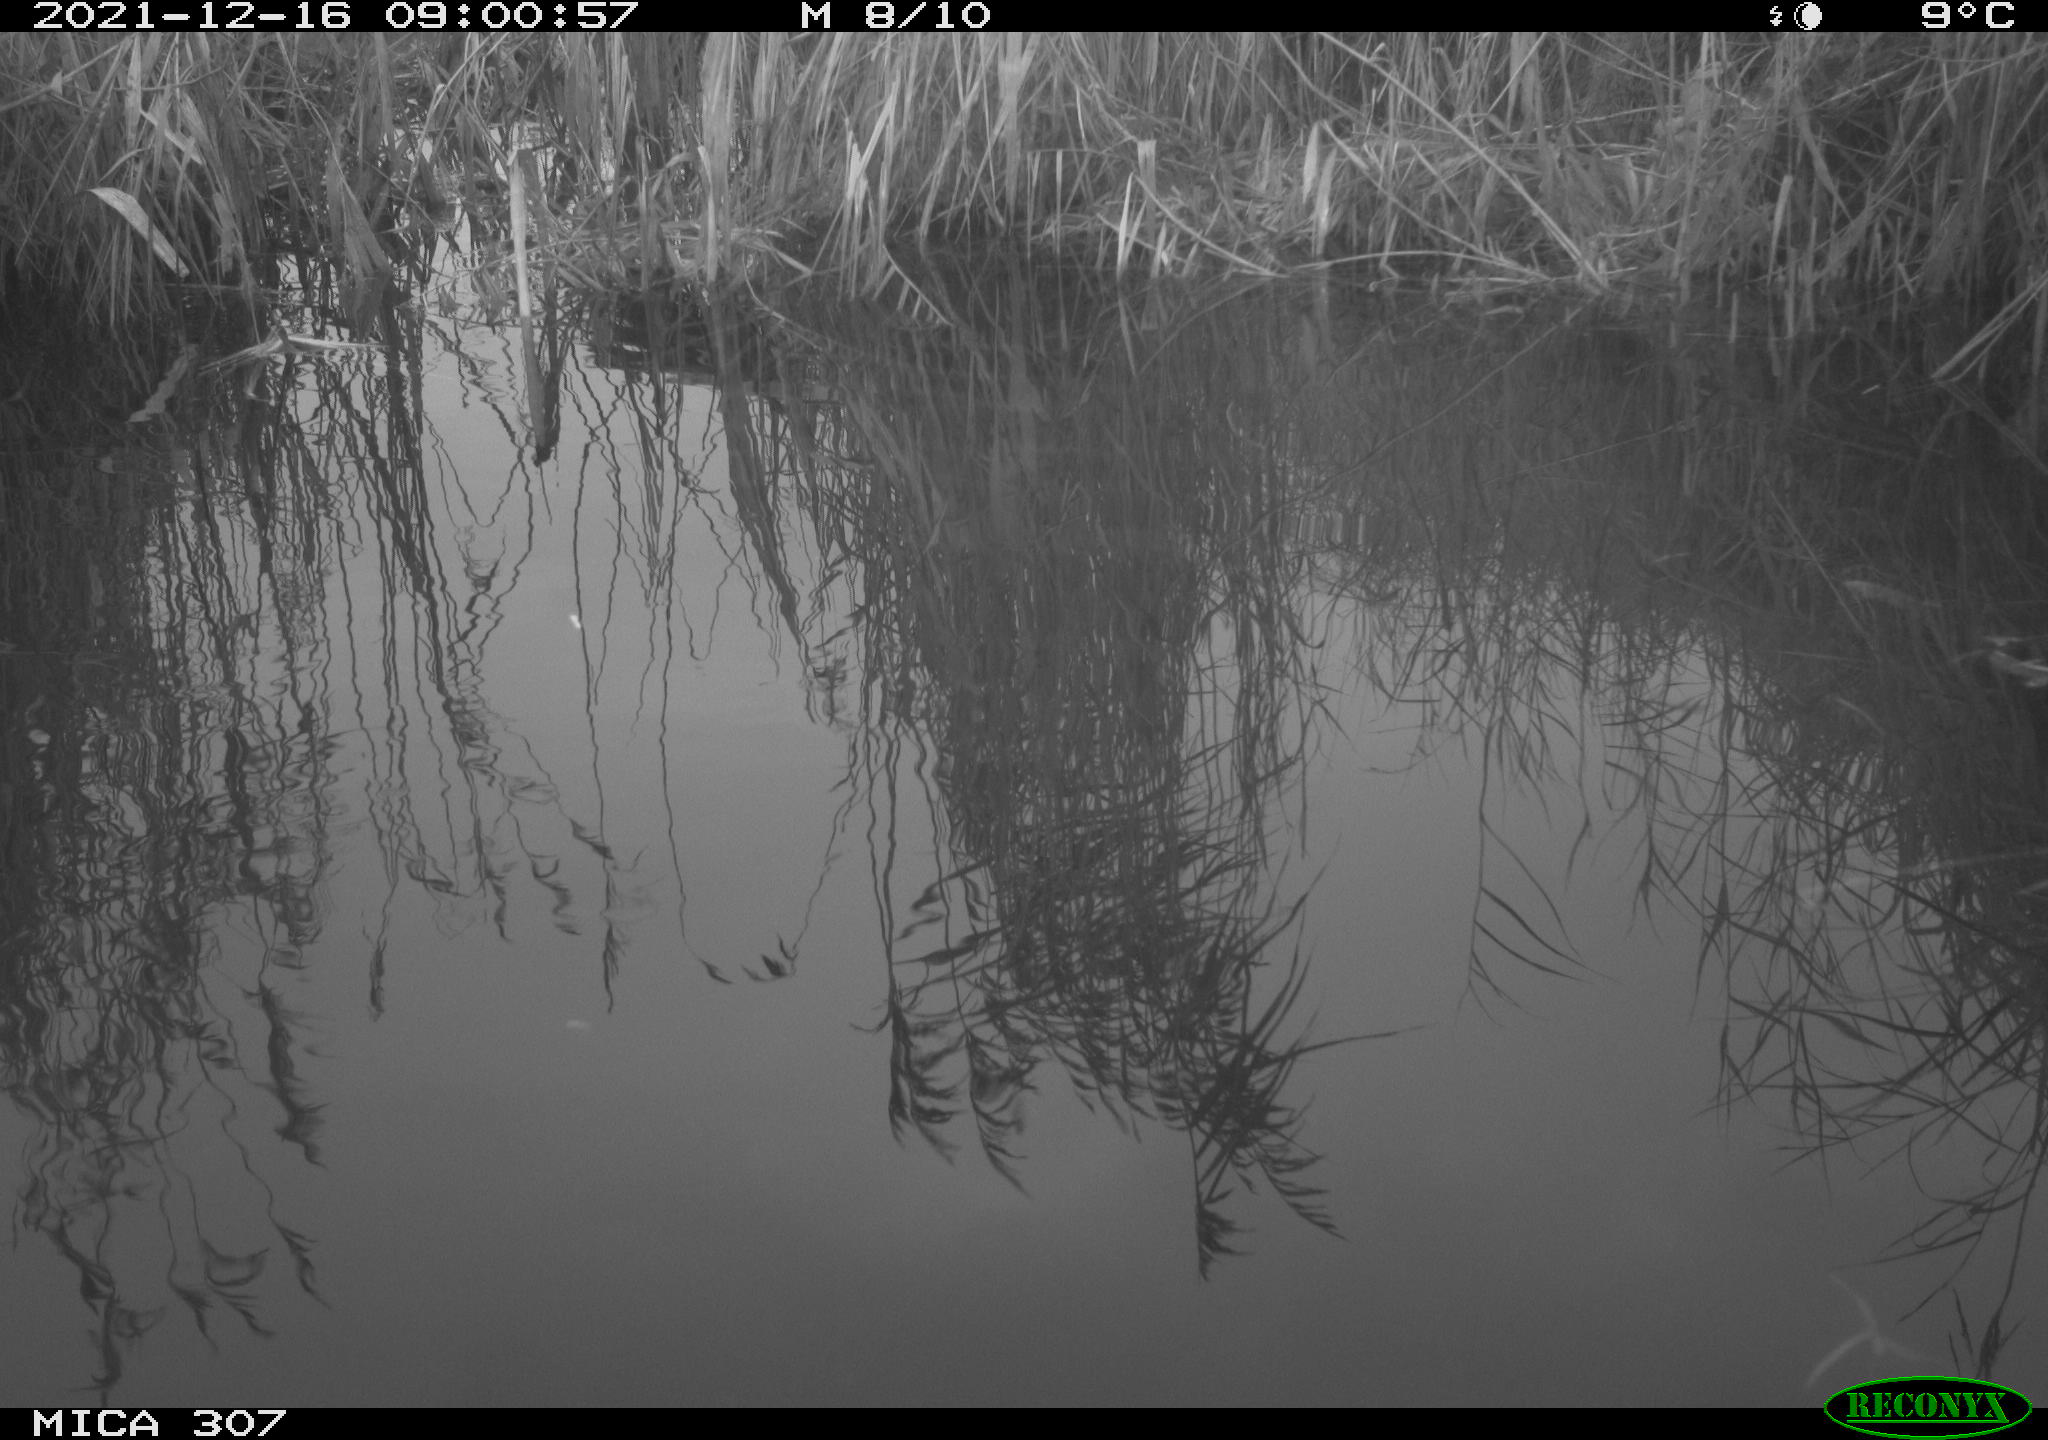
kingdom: Animalia
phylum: Chordata
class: Aves
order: Gruiformes
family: Rallidae
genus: Gallinula
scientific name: Gallinula chloropus
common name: Common moorhen
